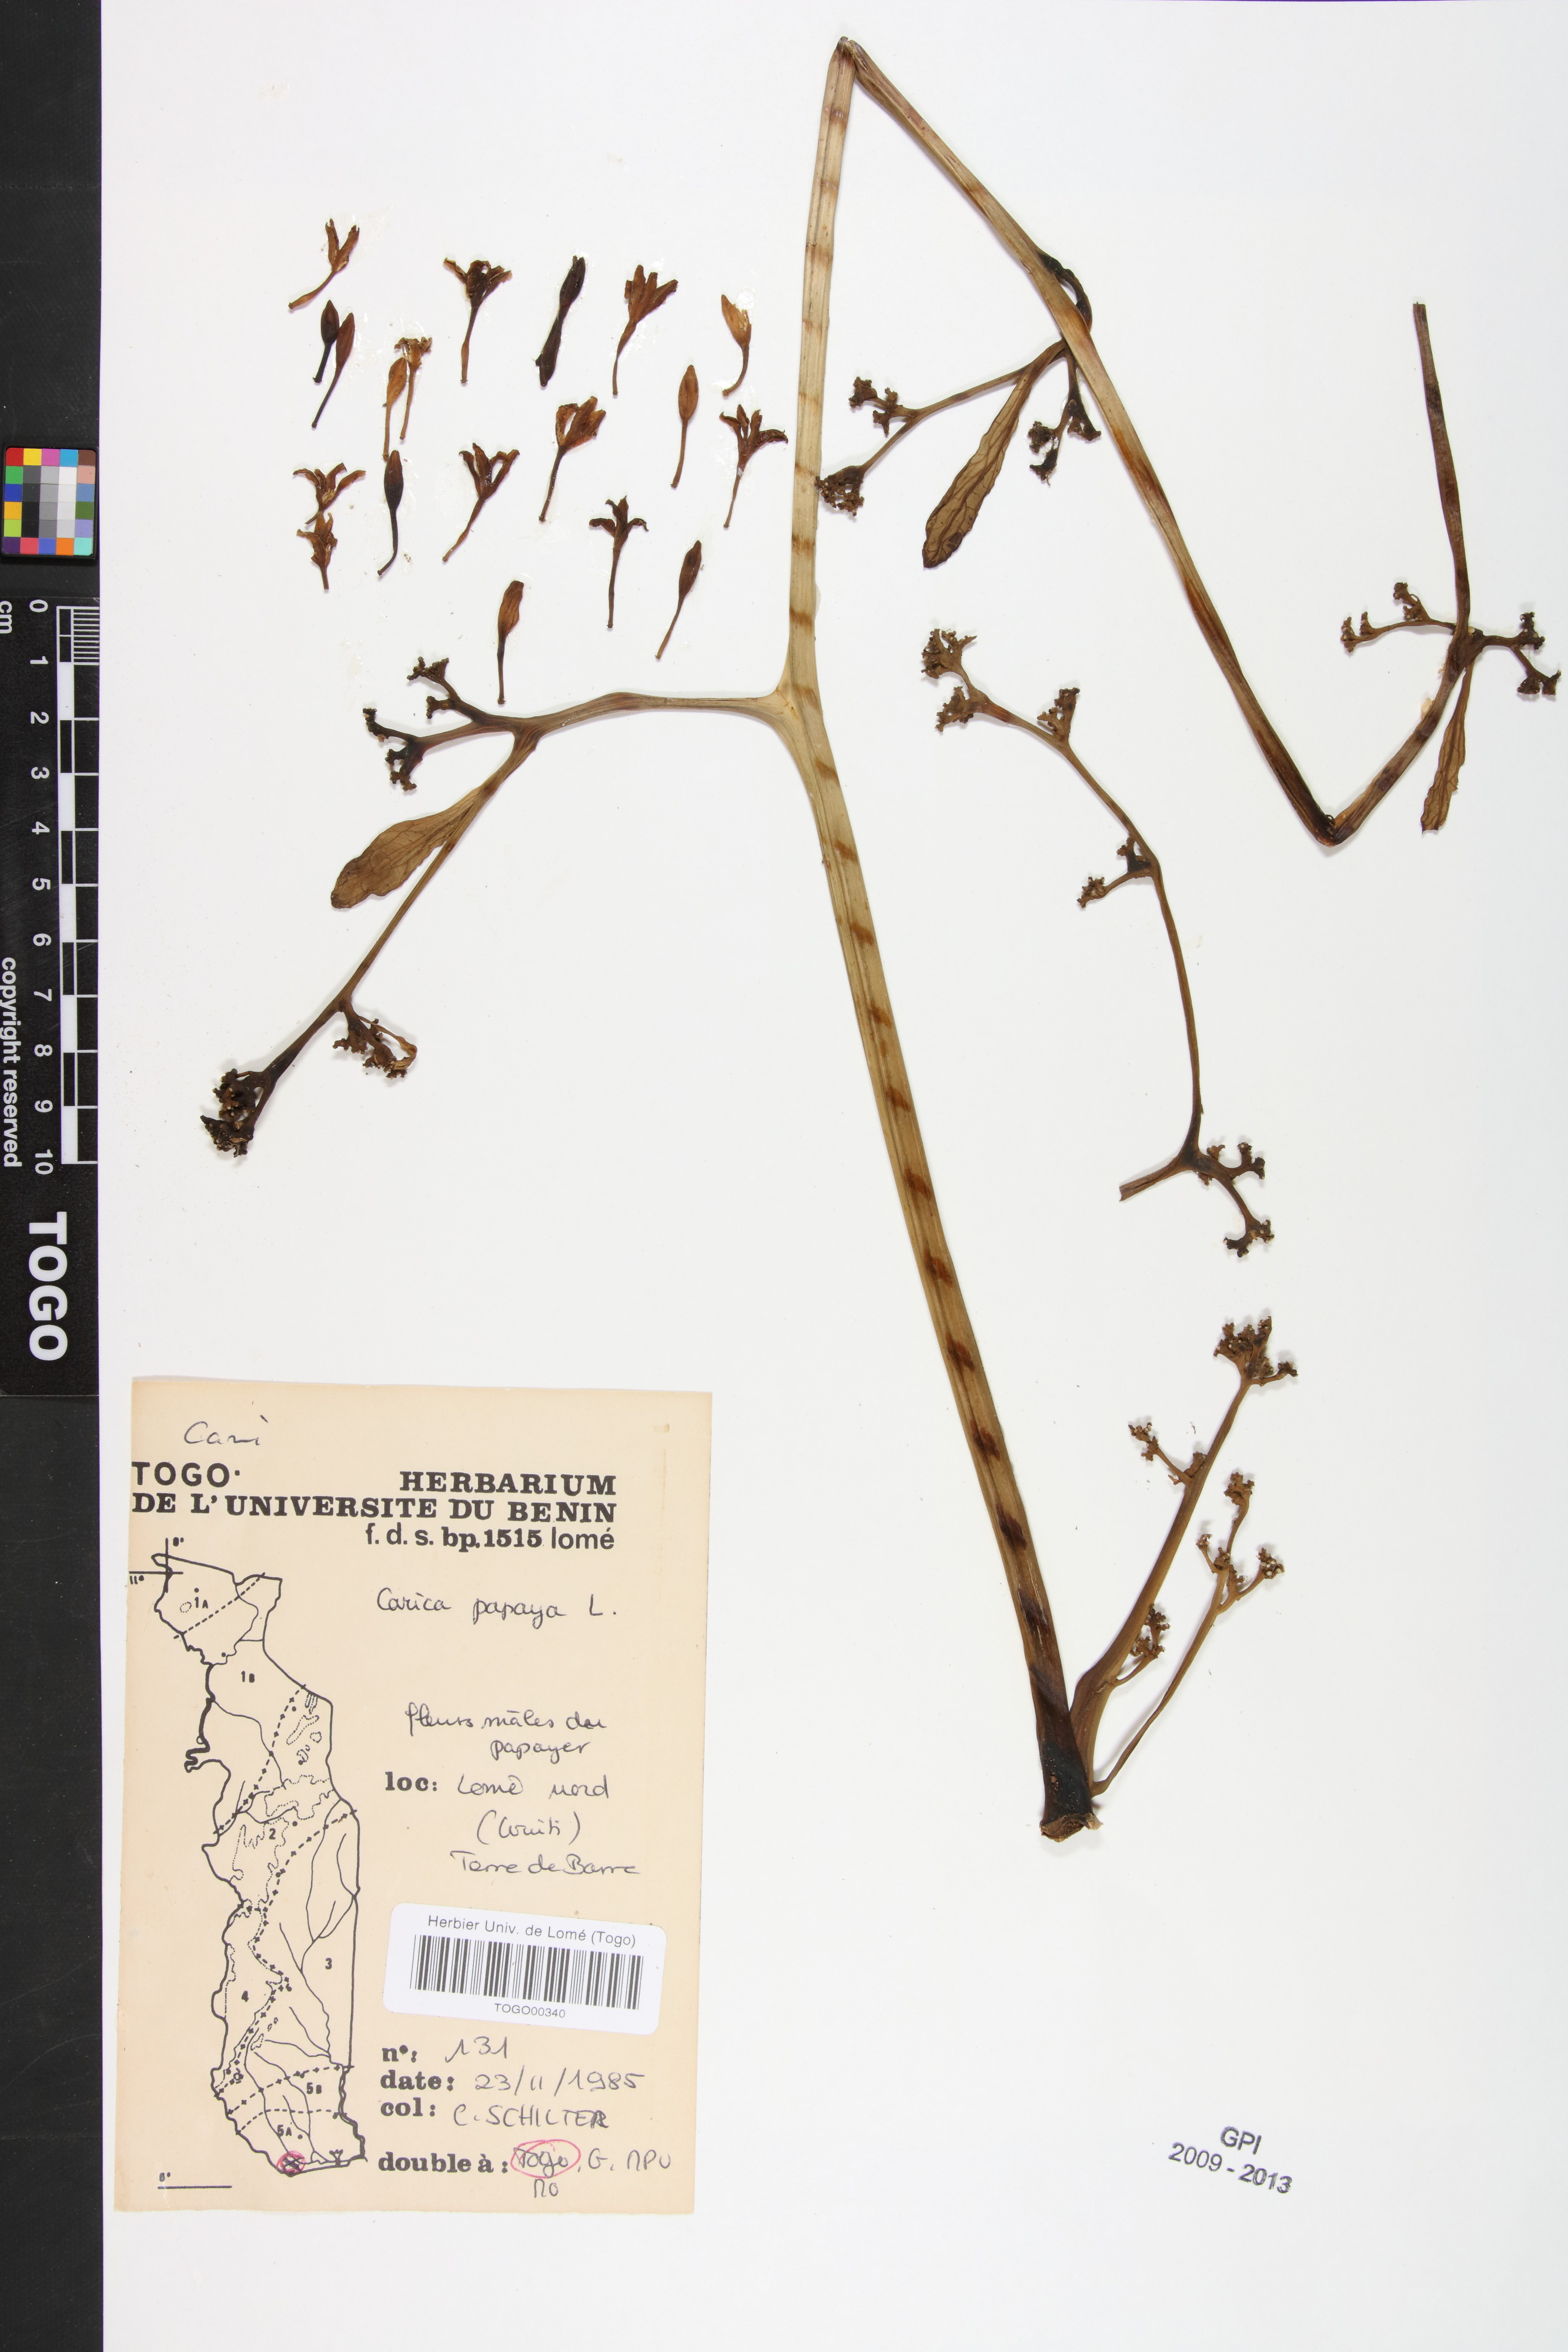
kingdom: Plantae
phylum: Tracheophyta
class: Magnoliopsida
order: Brassicales
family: Caricaceae
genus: Carica
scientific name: Carica papaya
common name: Papaya
